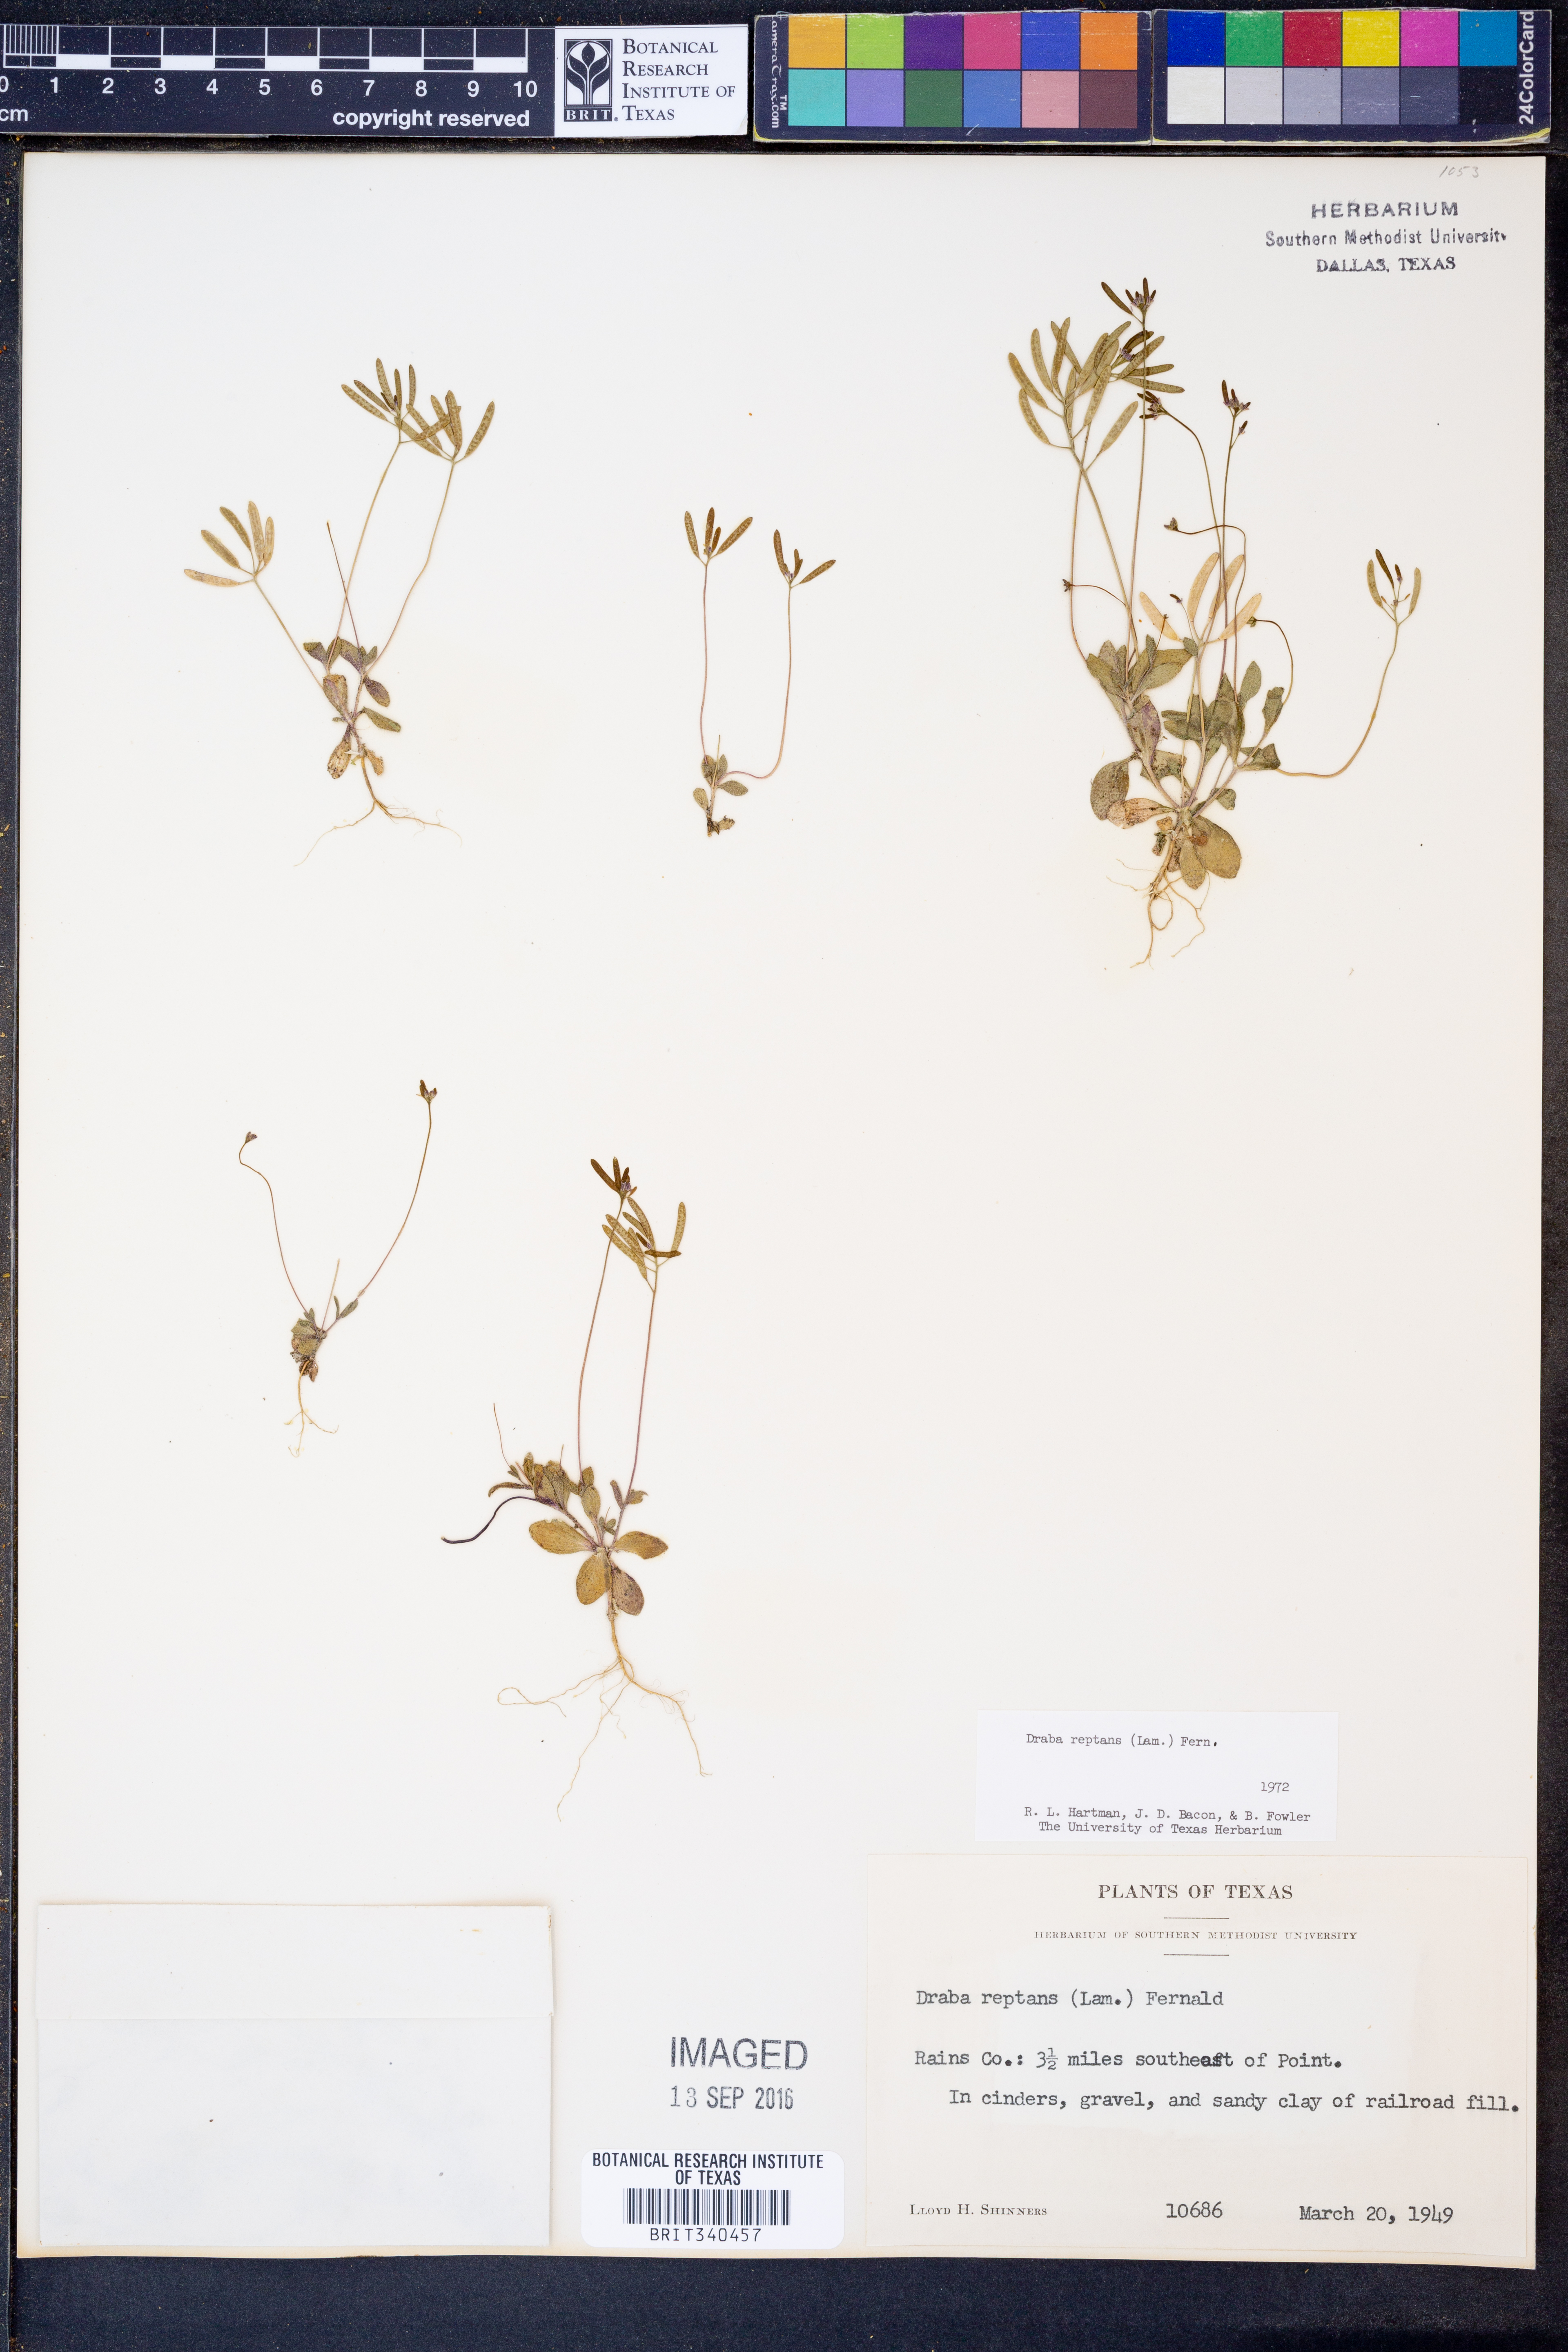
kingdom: Plantae
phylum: Tracheophyta
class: Magnoliopsida
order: Brassicales
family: Brassicaceae
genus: Tomostima
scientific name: Tomostima reptans
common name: Carolina draba
